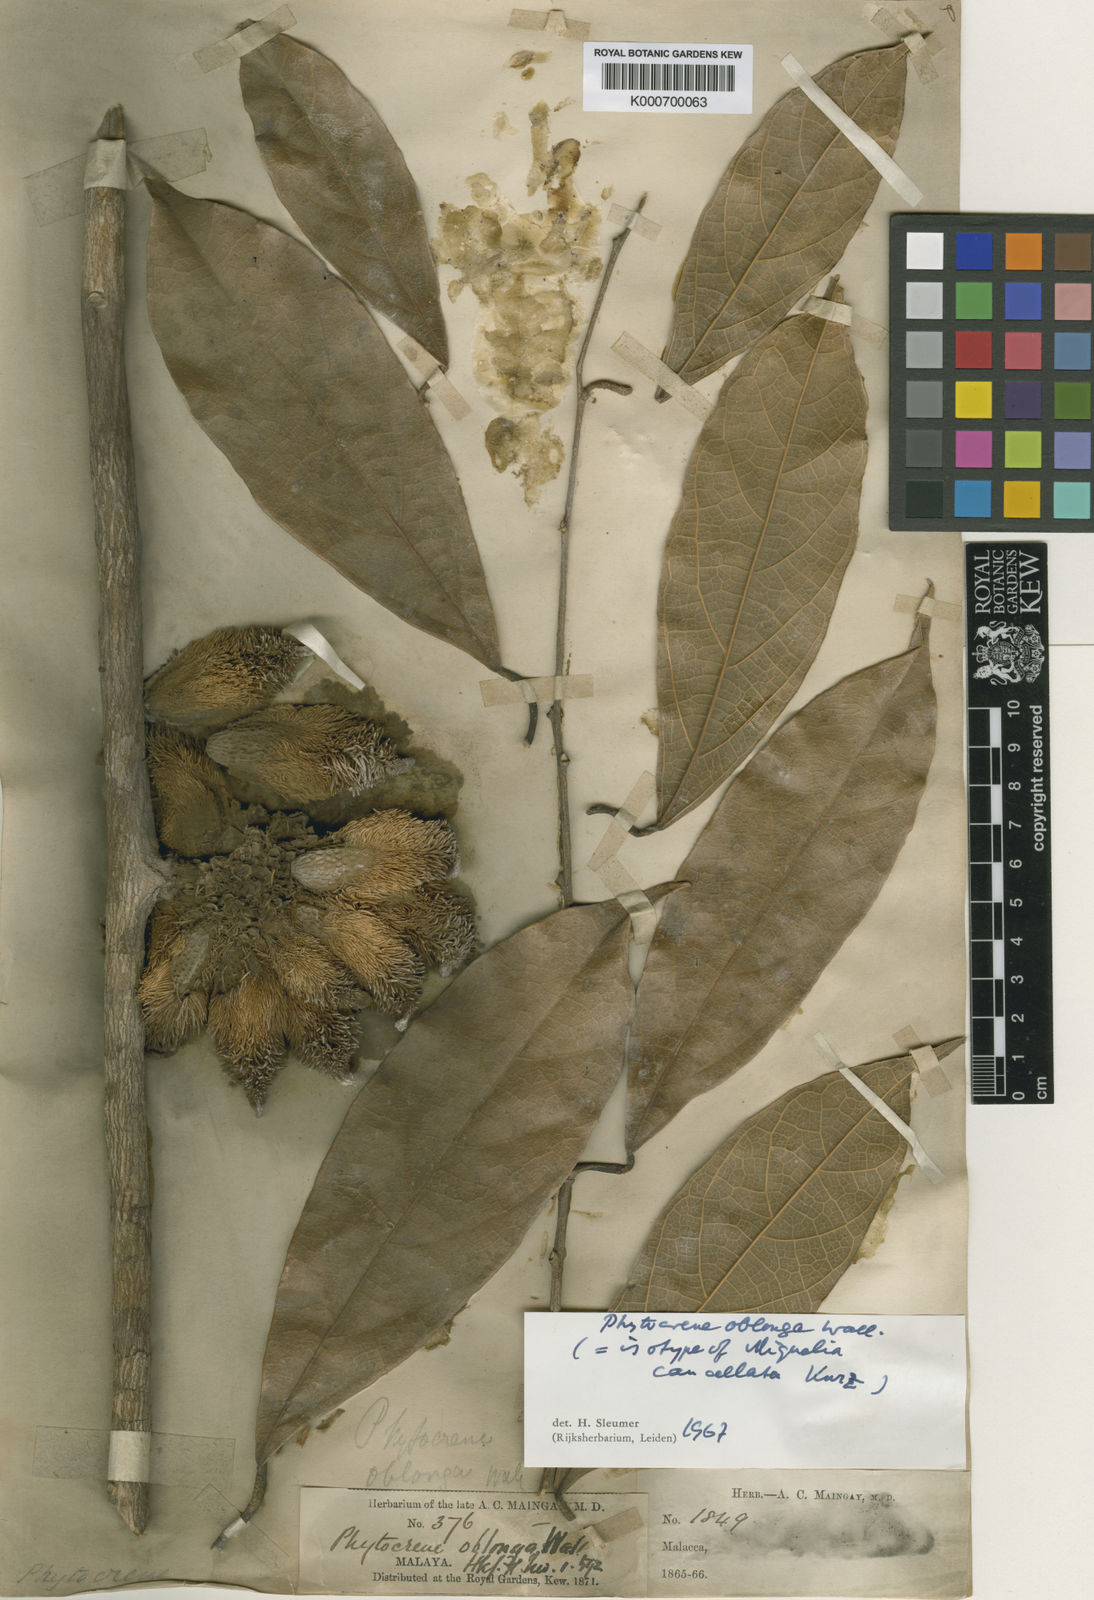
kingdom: Plantae
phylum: Tracheophyta
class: Magnoliopsida
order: Icacinales
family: Icacinaceae
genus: Phytocrene
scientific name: Phytocrene oblonga
